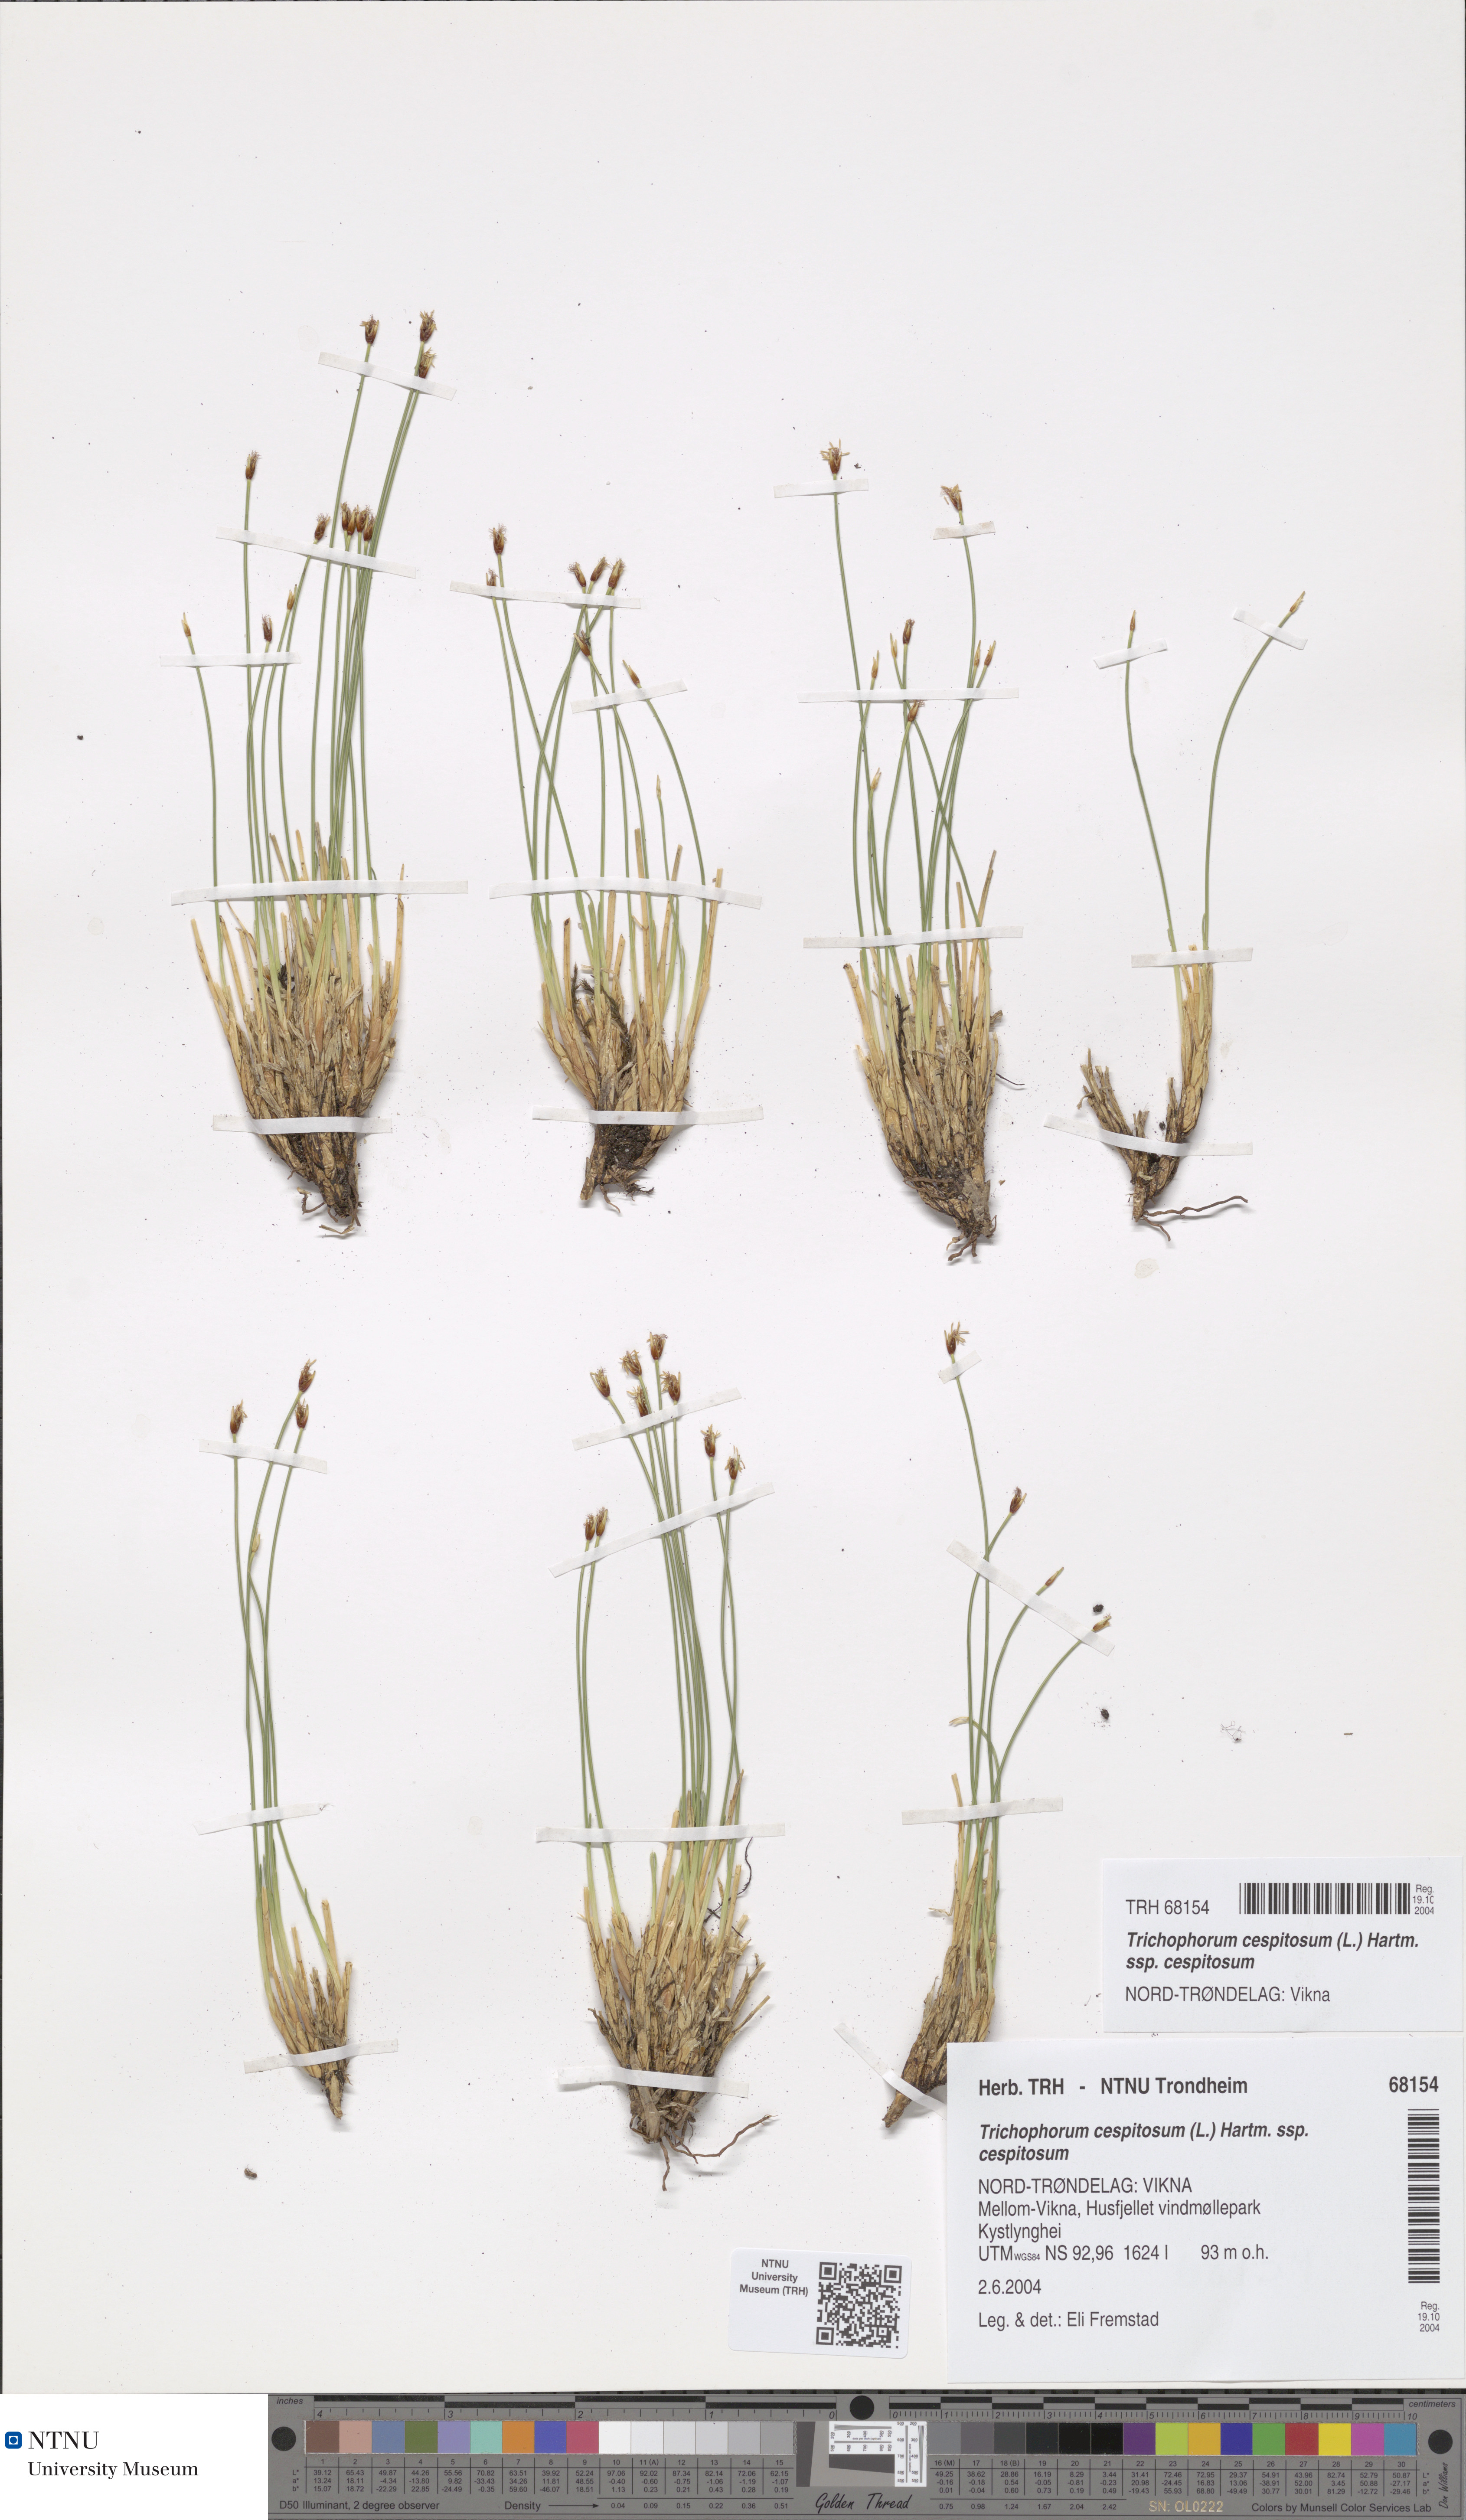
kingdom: Plantae
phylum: Tracheophyta
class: Liliopsida
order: Poales
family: Cyperaceae
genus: Trichophorum
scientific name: Trichophorum cespitosum
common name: Cespitose bulrush
